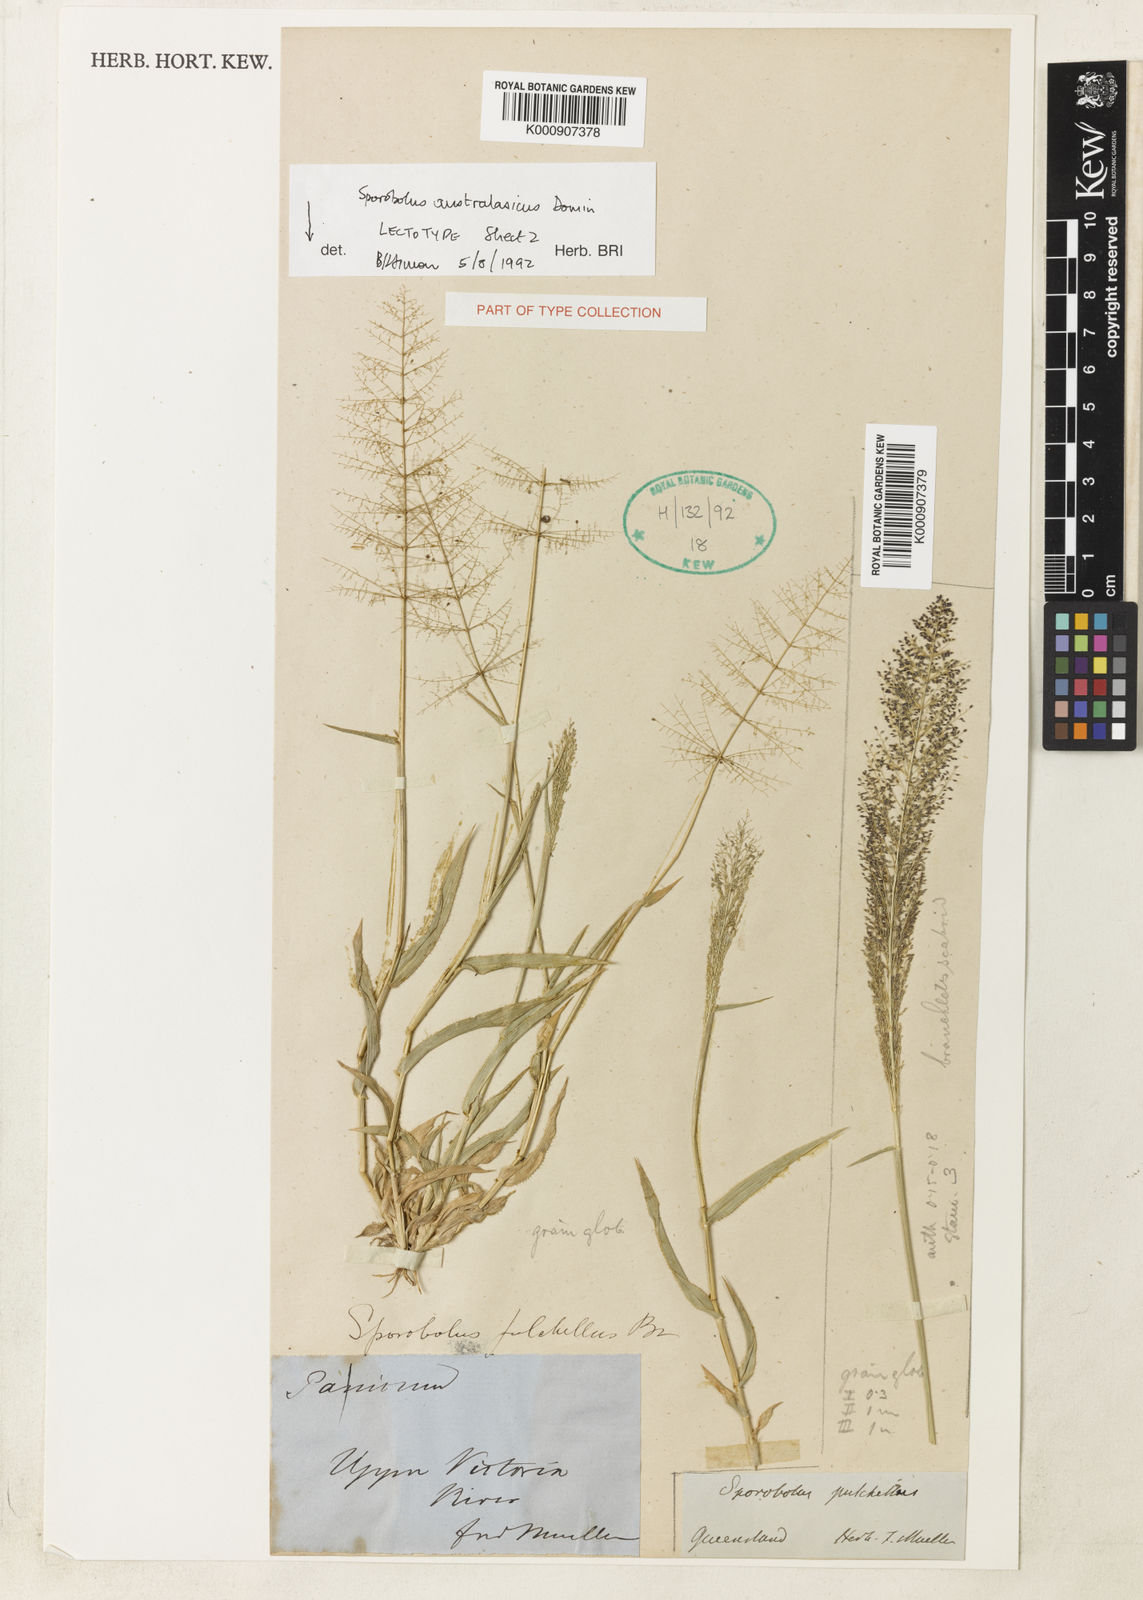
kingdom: Plantae
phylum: Tracheophyta
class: Liliopsida
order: Poales
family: Poaceae
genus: Sporobolus
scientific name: Sporobolus australasicus
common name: Australian dropseed
